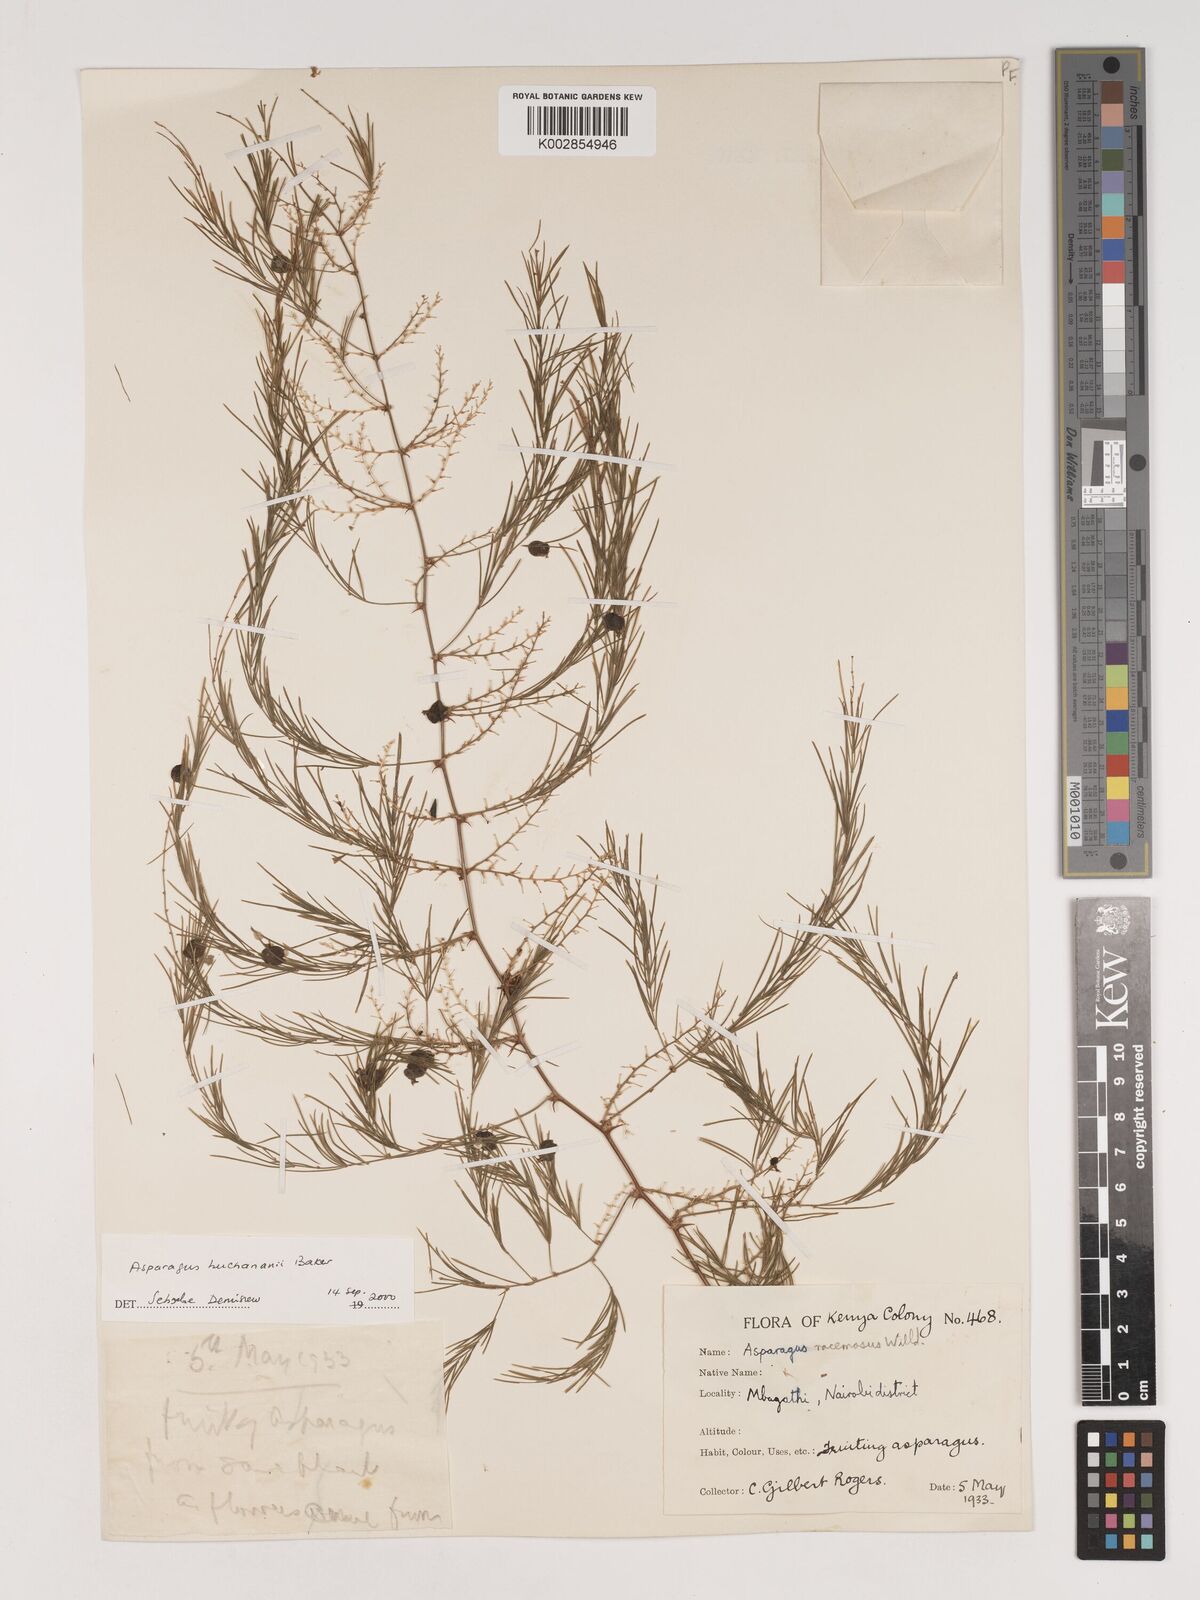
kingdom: Plantae
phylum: Tracheophyta
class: Liliopsida
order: Asparagales
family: Asparagaceae
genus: Asparagus
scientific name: Asparagus buchananii
